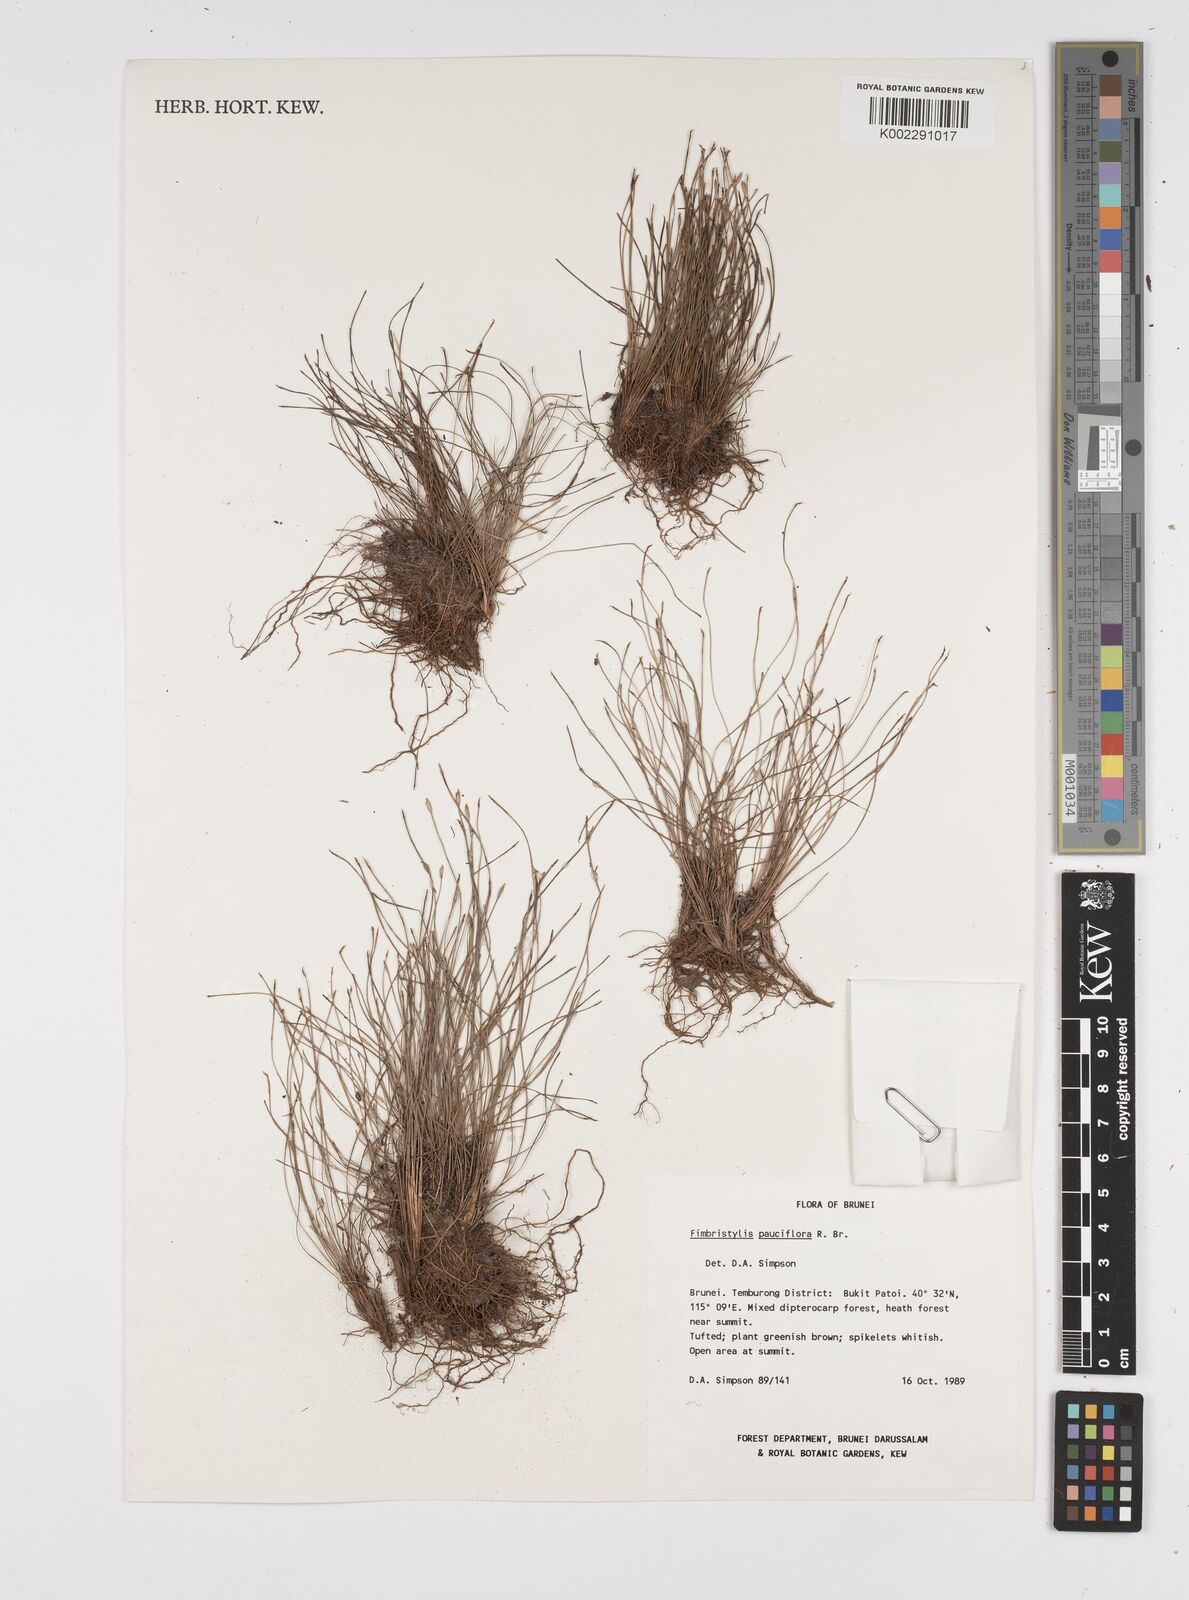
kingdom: Plantae
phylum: Tracheophyta
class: Liliopsida
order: Poales
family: Cyperaceae
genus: Fimbristylis
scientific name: Fimbristylis pauciflora
